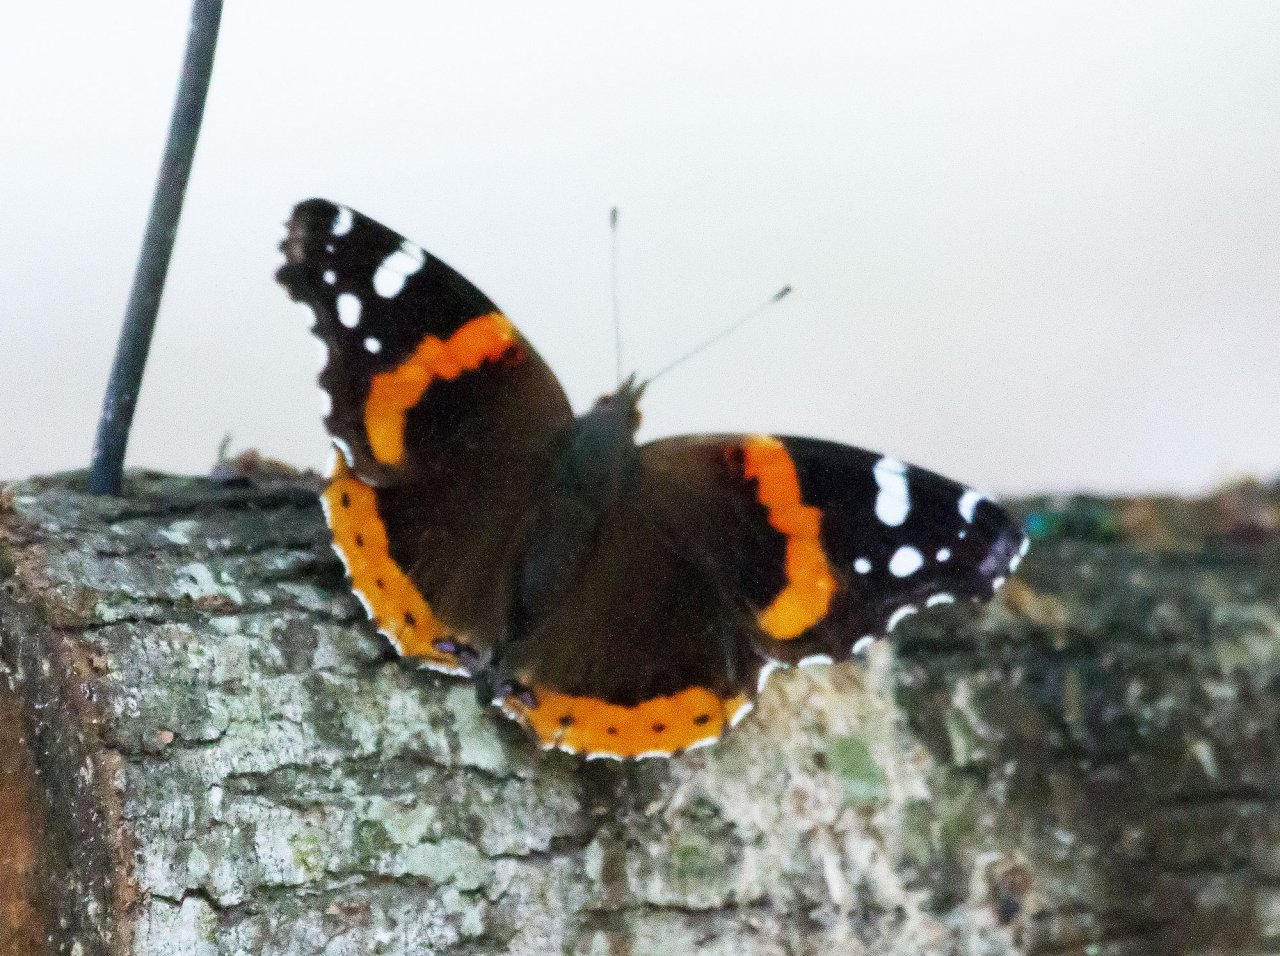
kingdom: Animalia
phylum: Arthropoda
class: Insecta
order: Lepidoptera
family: Nymphalidae
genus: Vanessa
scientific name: Vanessa atalanta
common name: Red Admiral
